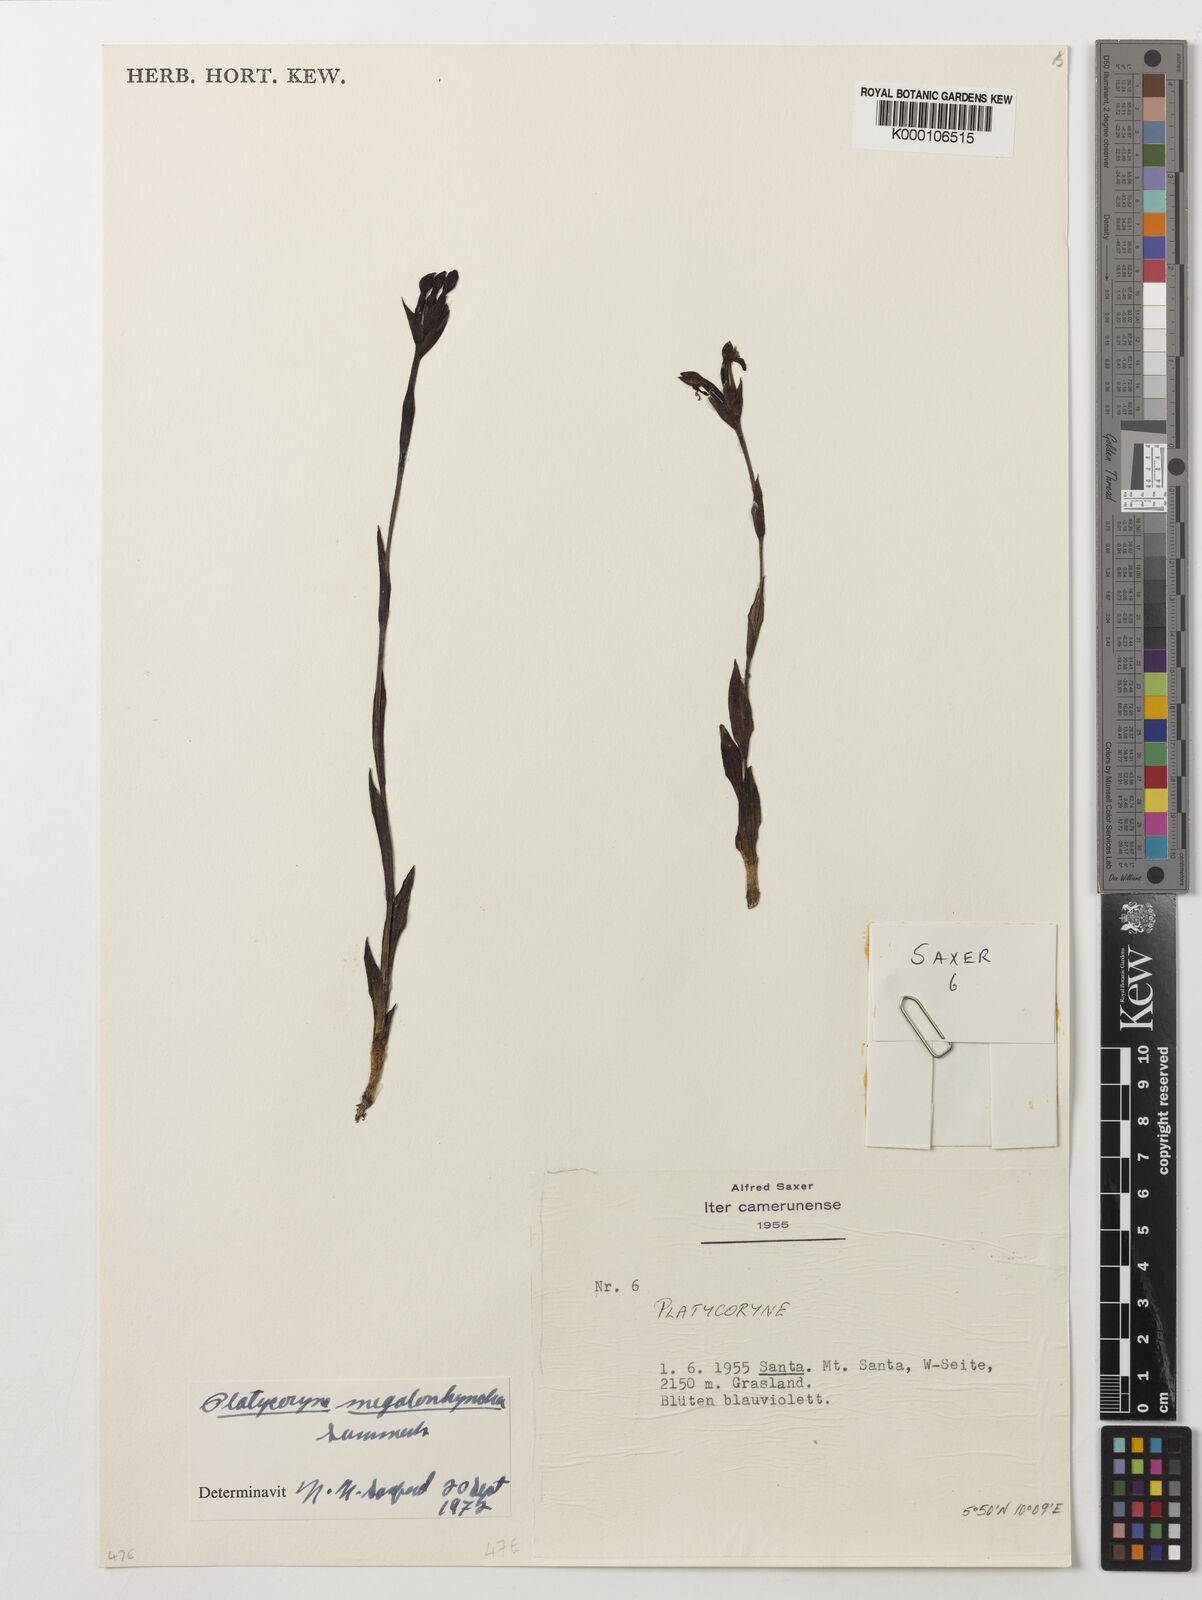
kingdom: Plantae
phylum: Tracheophyta
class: Liliopsida
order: Asparagales
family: Orchidaceae
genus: Platycoryne
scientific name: Platycoryne megalorrhyncha
